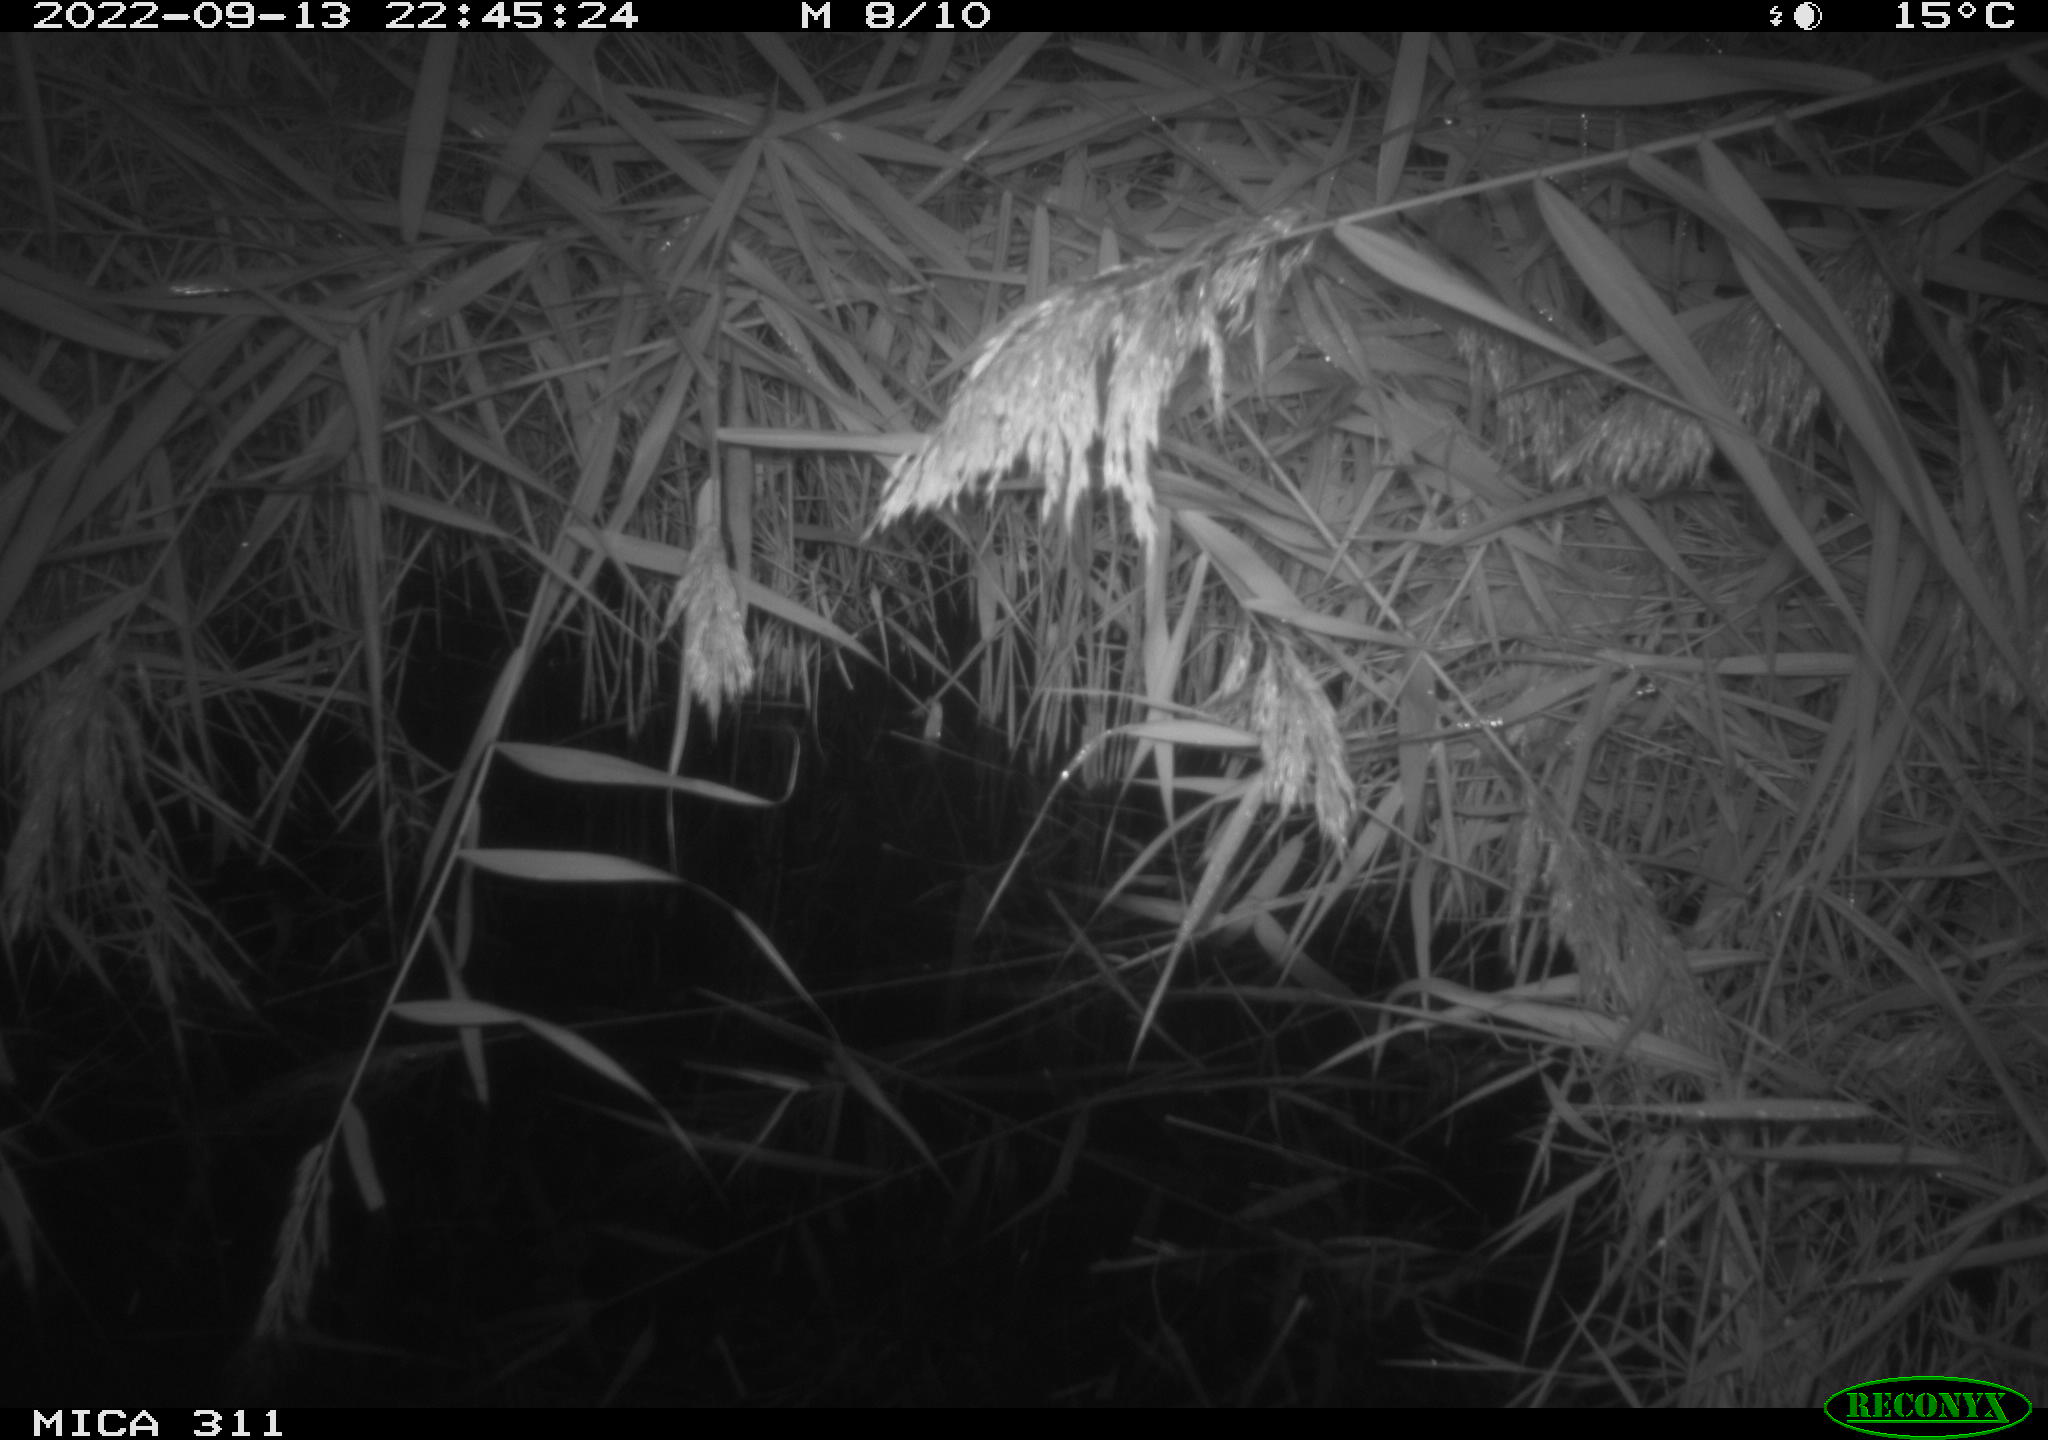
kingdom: Animalia
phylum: Chordata
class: Mammalia
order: Rodentia
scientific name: Rodentia
